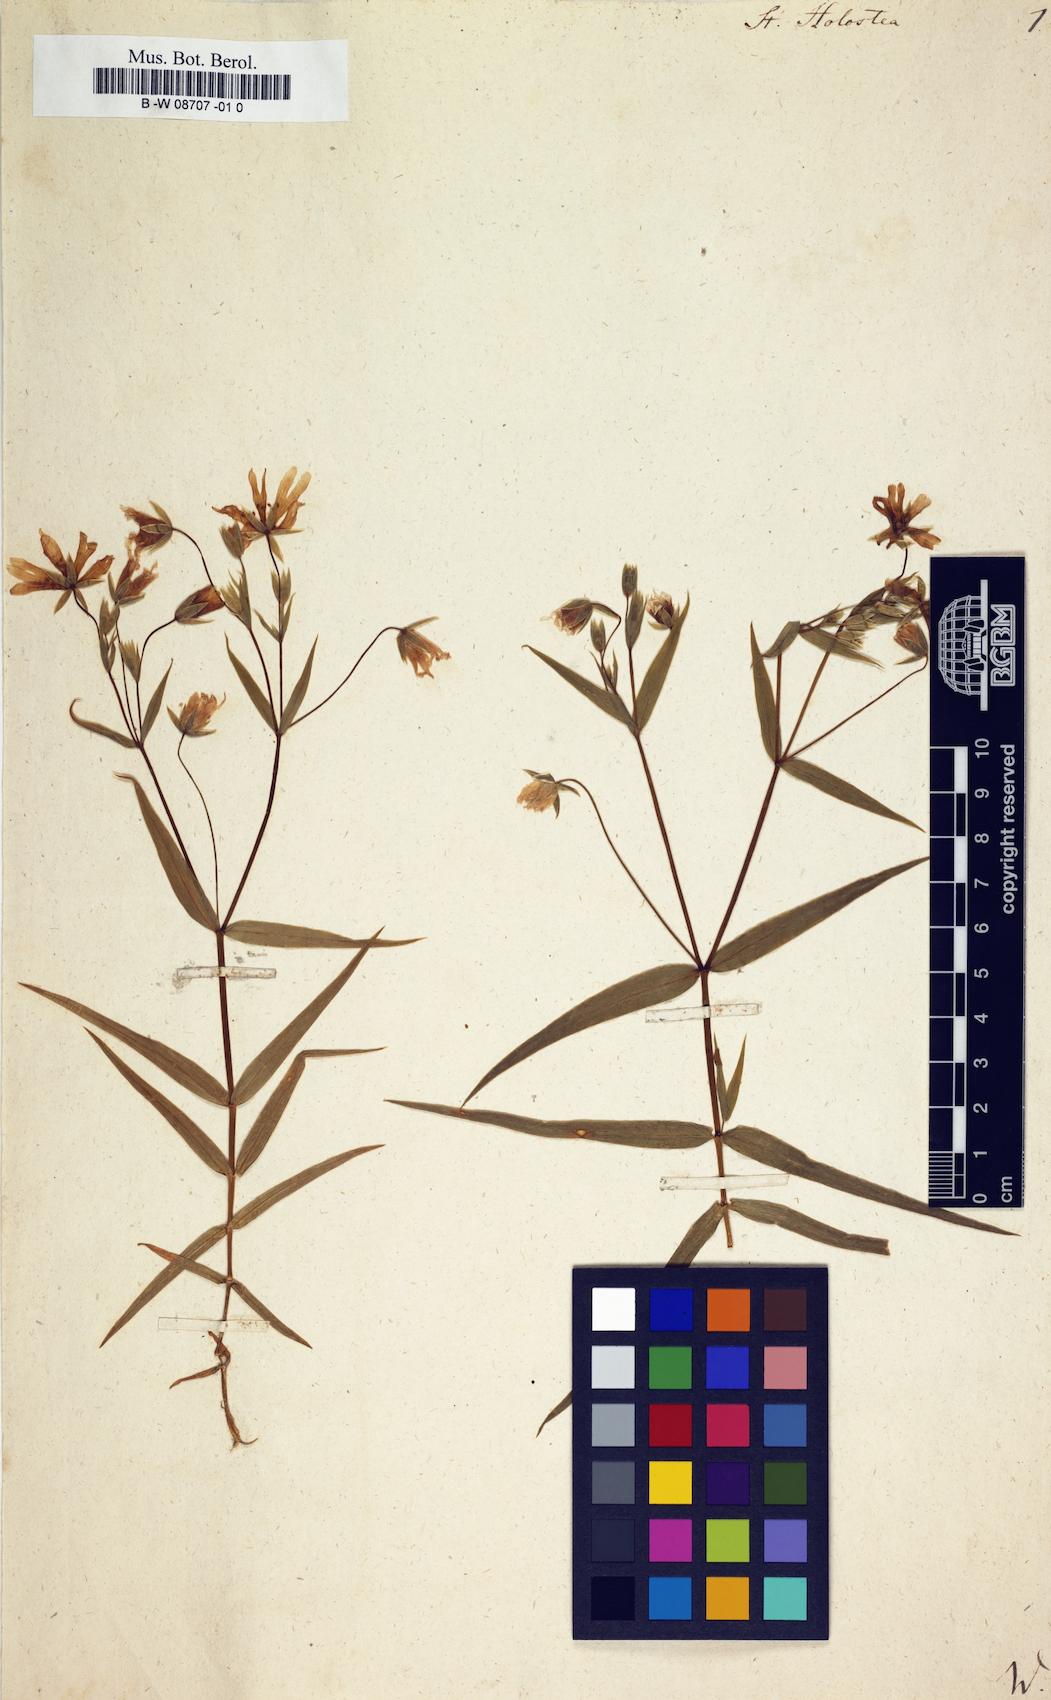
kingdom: Plantae
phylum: Tracheophyta
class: Magnoliopsida
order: Caryophyllales
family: Caryophyllaceae
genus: Rabelera
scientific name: Rabelera holostea
